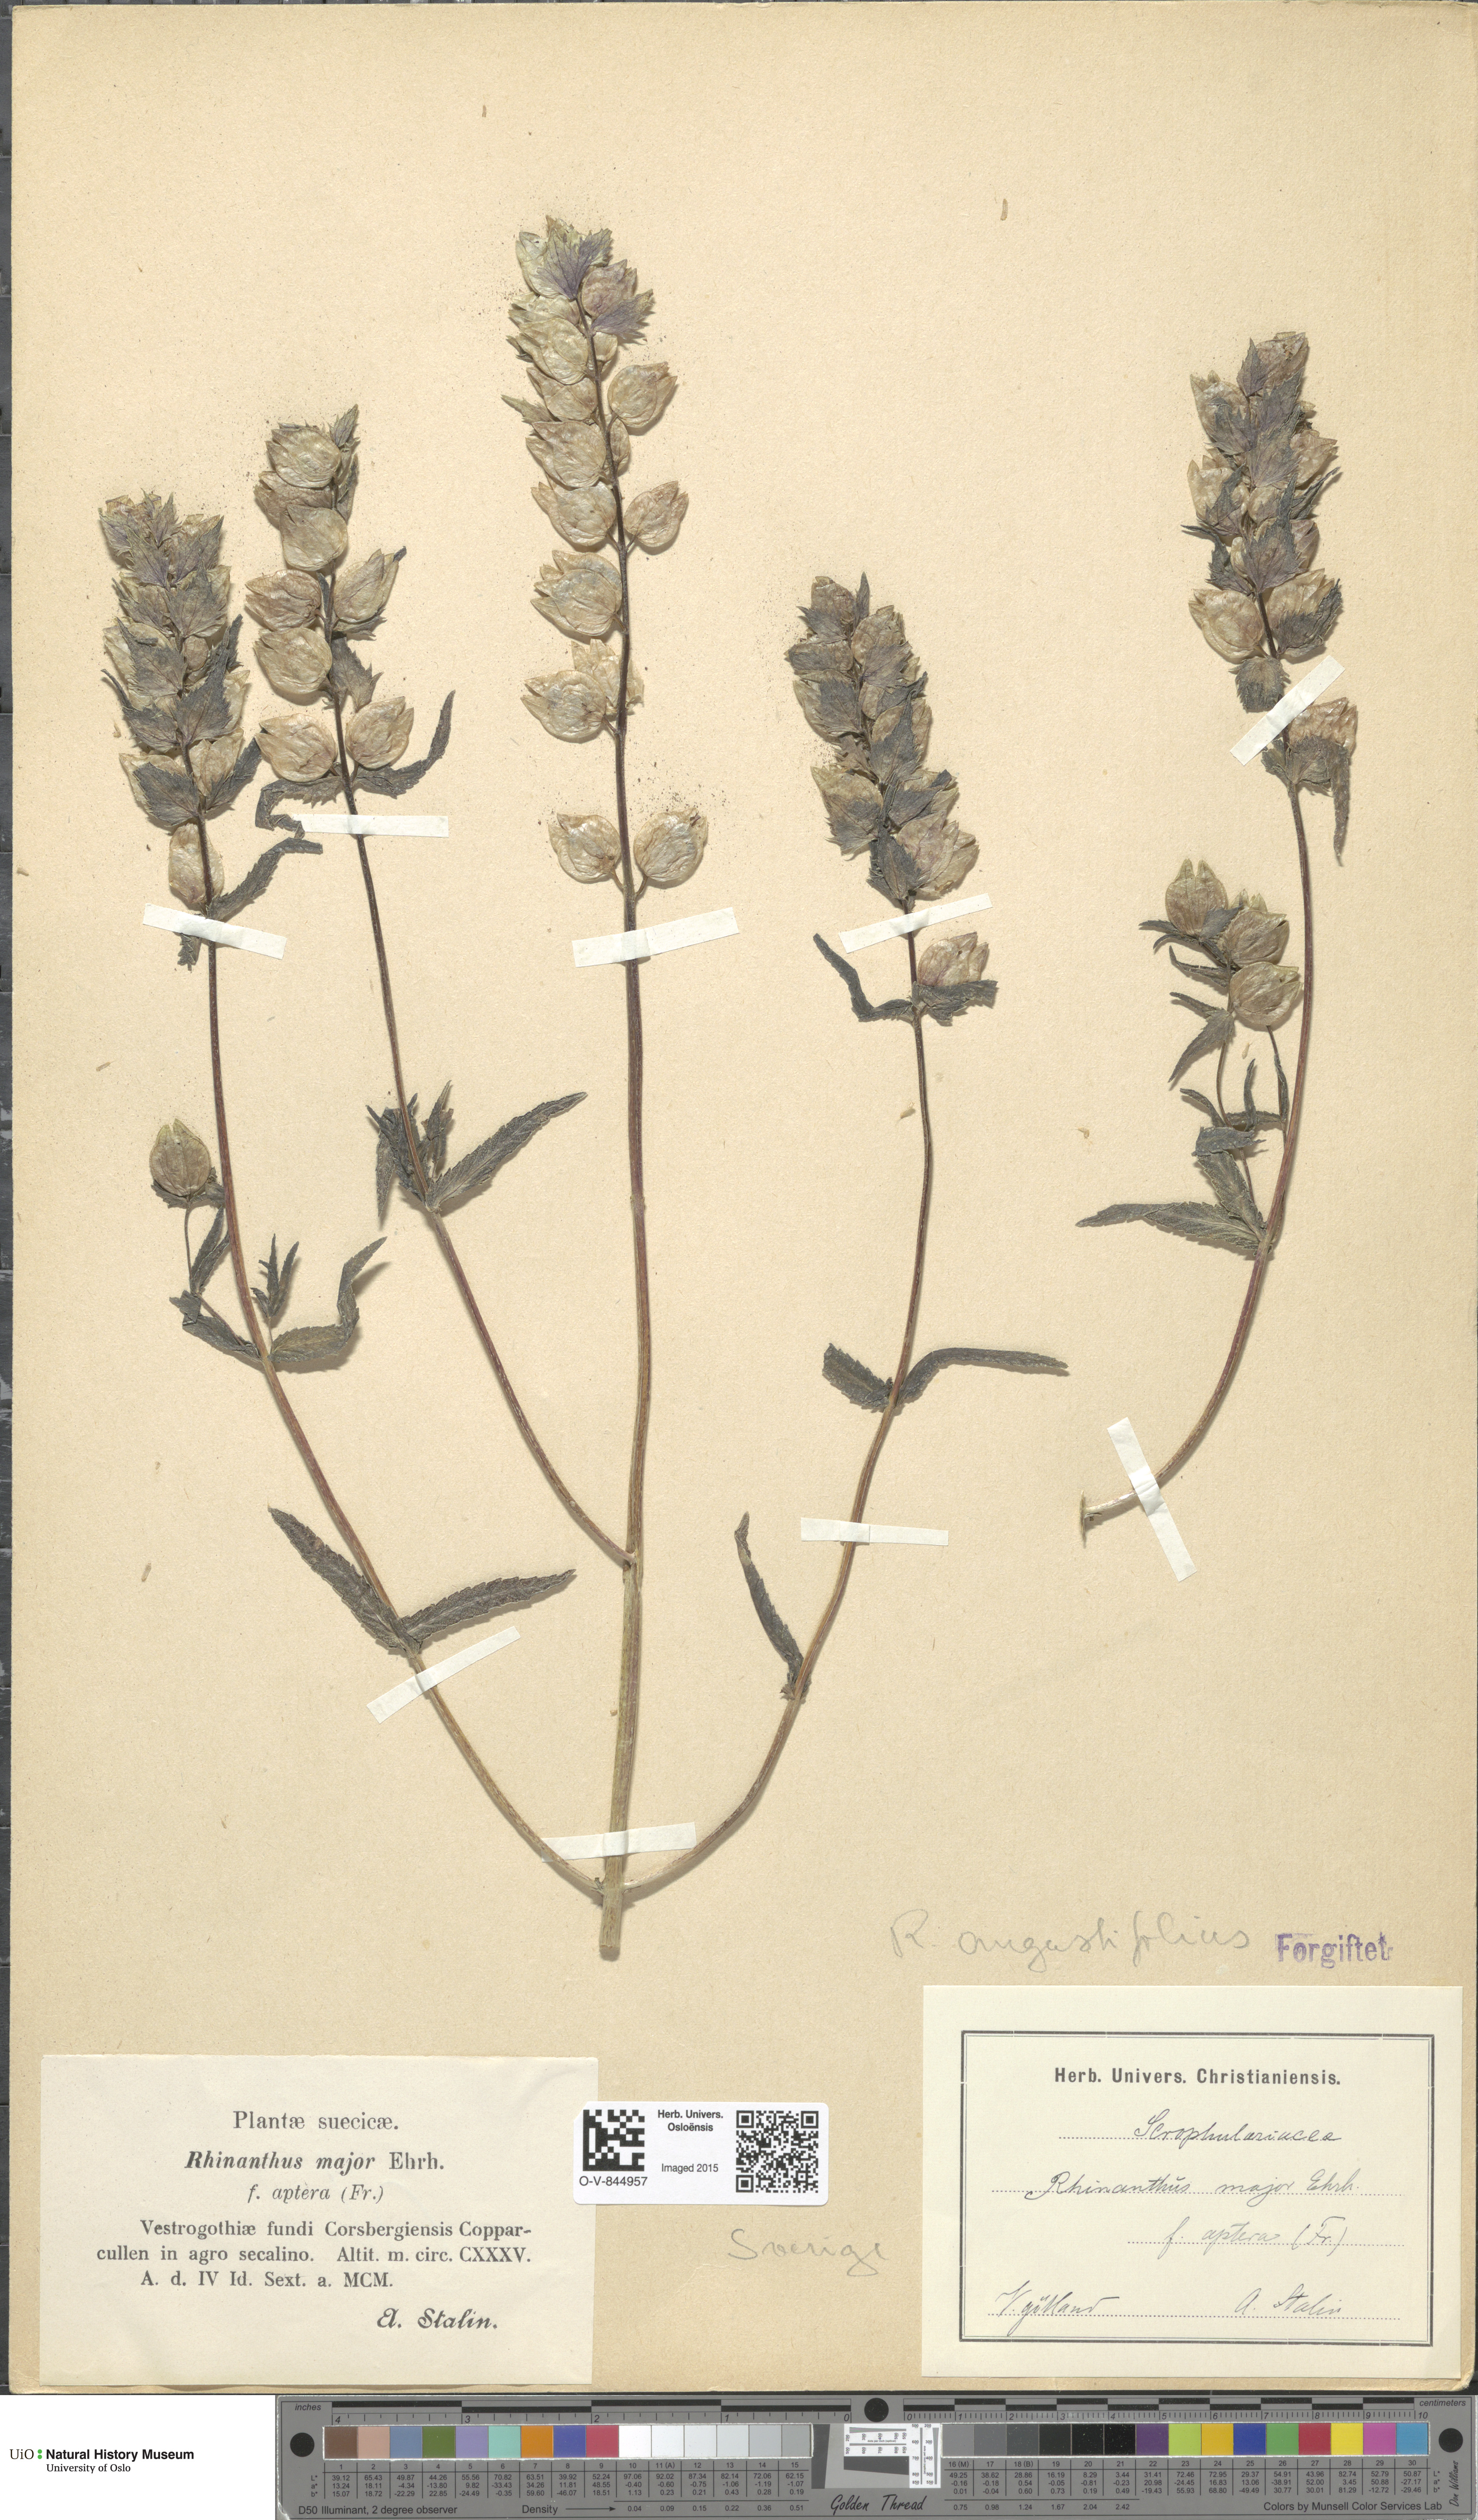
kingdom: Plantae
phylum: Tracheophyta
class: Magnoliopsida
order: Lamiales
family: Orobanchaceae
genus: Rhinanthus
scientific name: Rhinanthus serotinus
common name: Late-flowering yellow rattle
